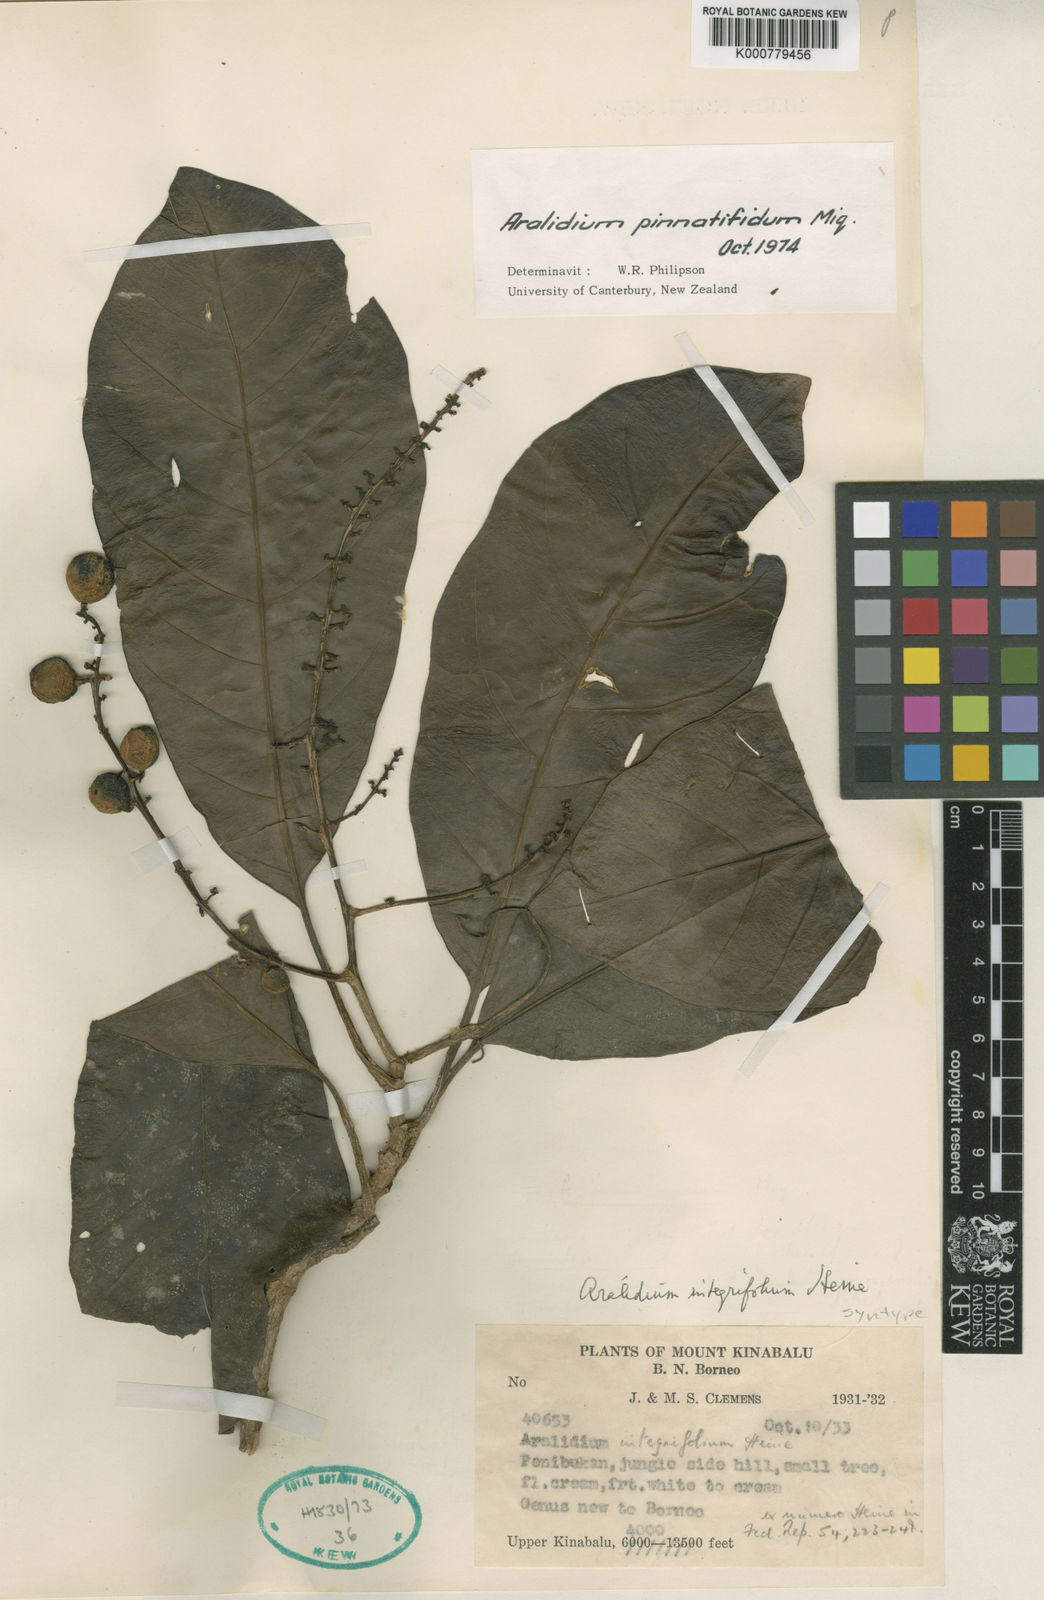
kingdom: Plantae
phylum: Tracheophyta
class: Magnoliopsida
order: Apiales
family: Torricelliaceae
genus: Aralidium
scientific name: Aralidium pinnatifidum
